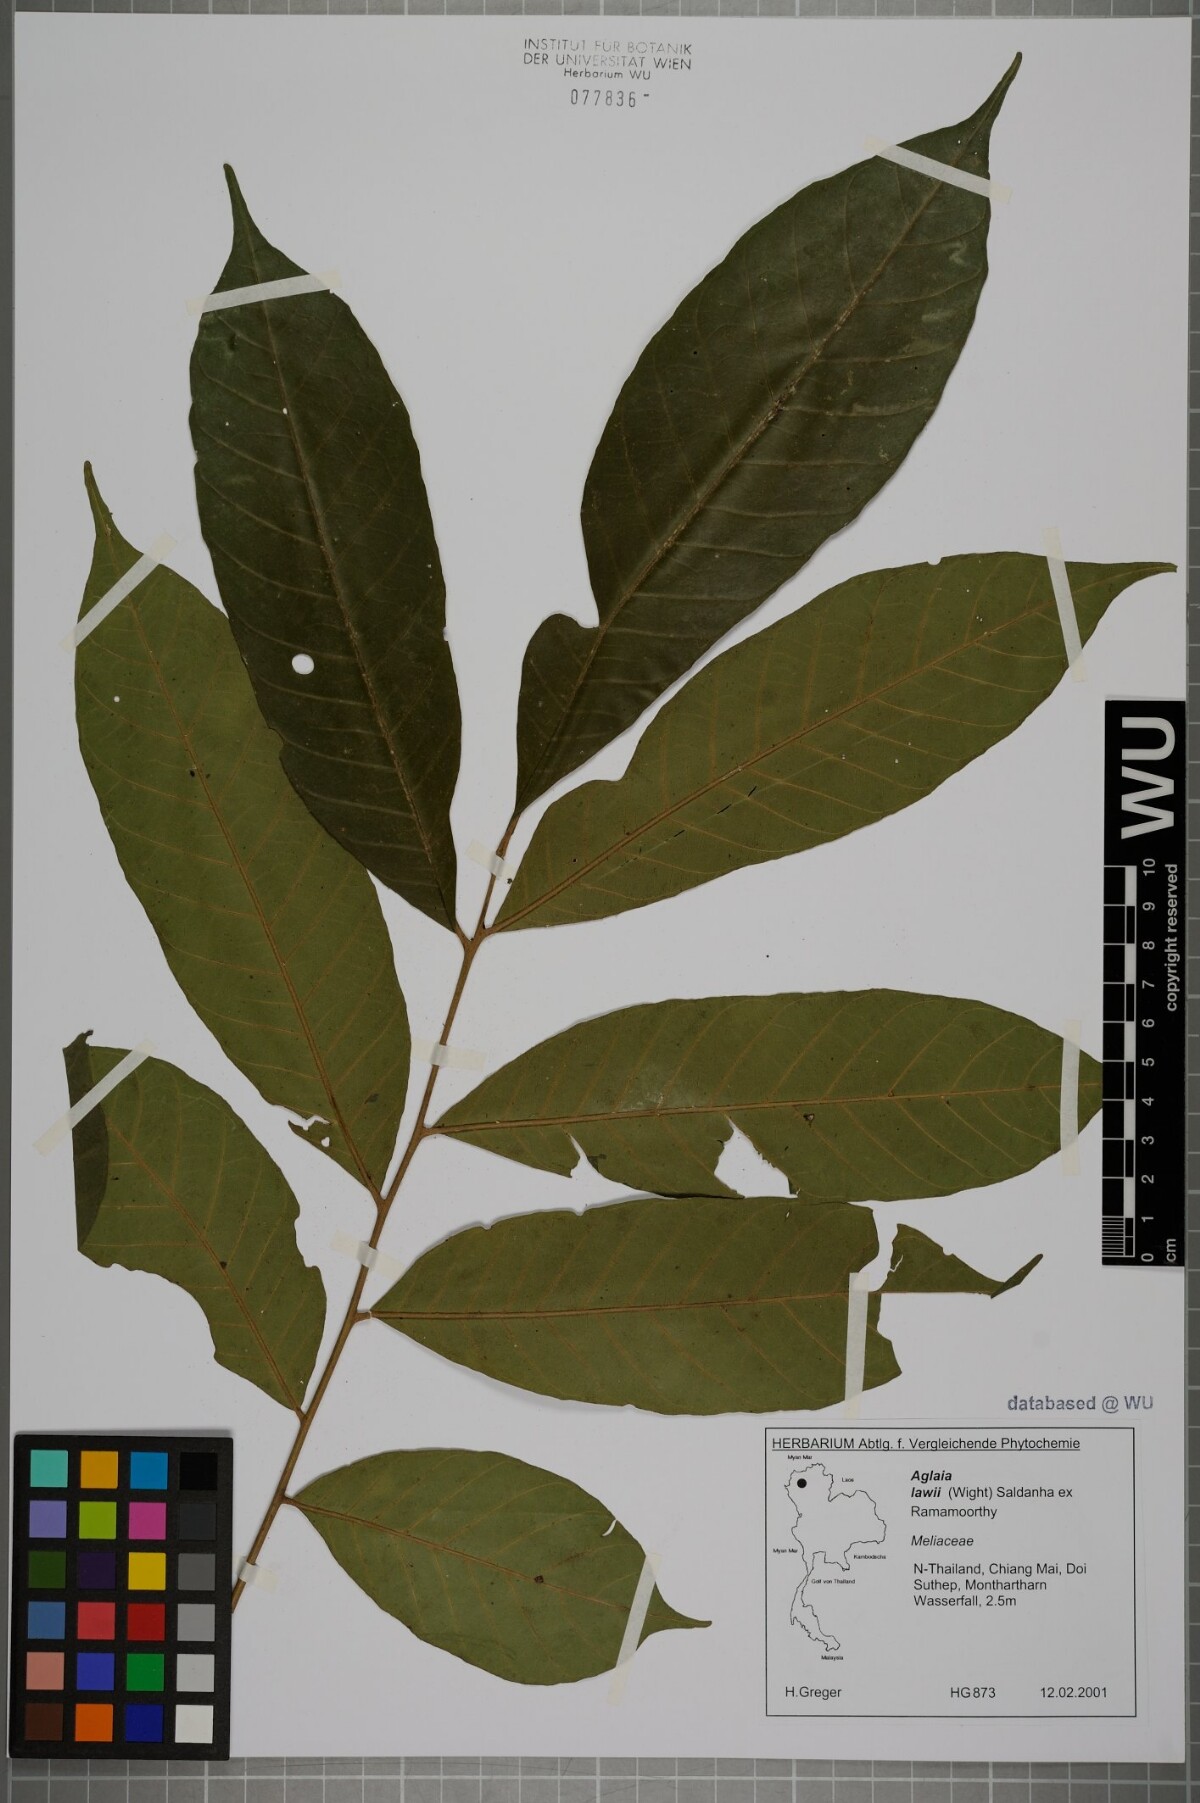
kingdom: Plantae
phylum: Tracheophyta
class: Magnoliopsida
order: Sapindales
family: Meliaceae
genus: Aglaia
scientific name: Aglaia lawii
